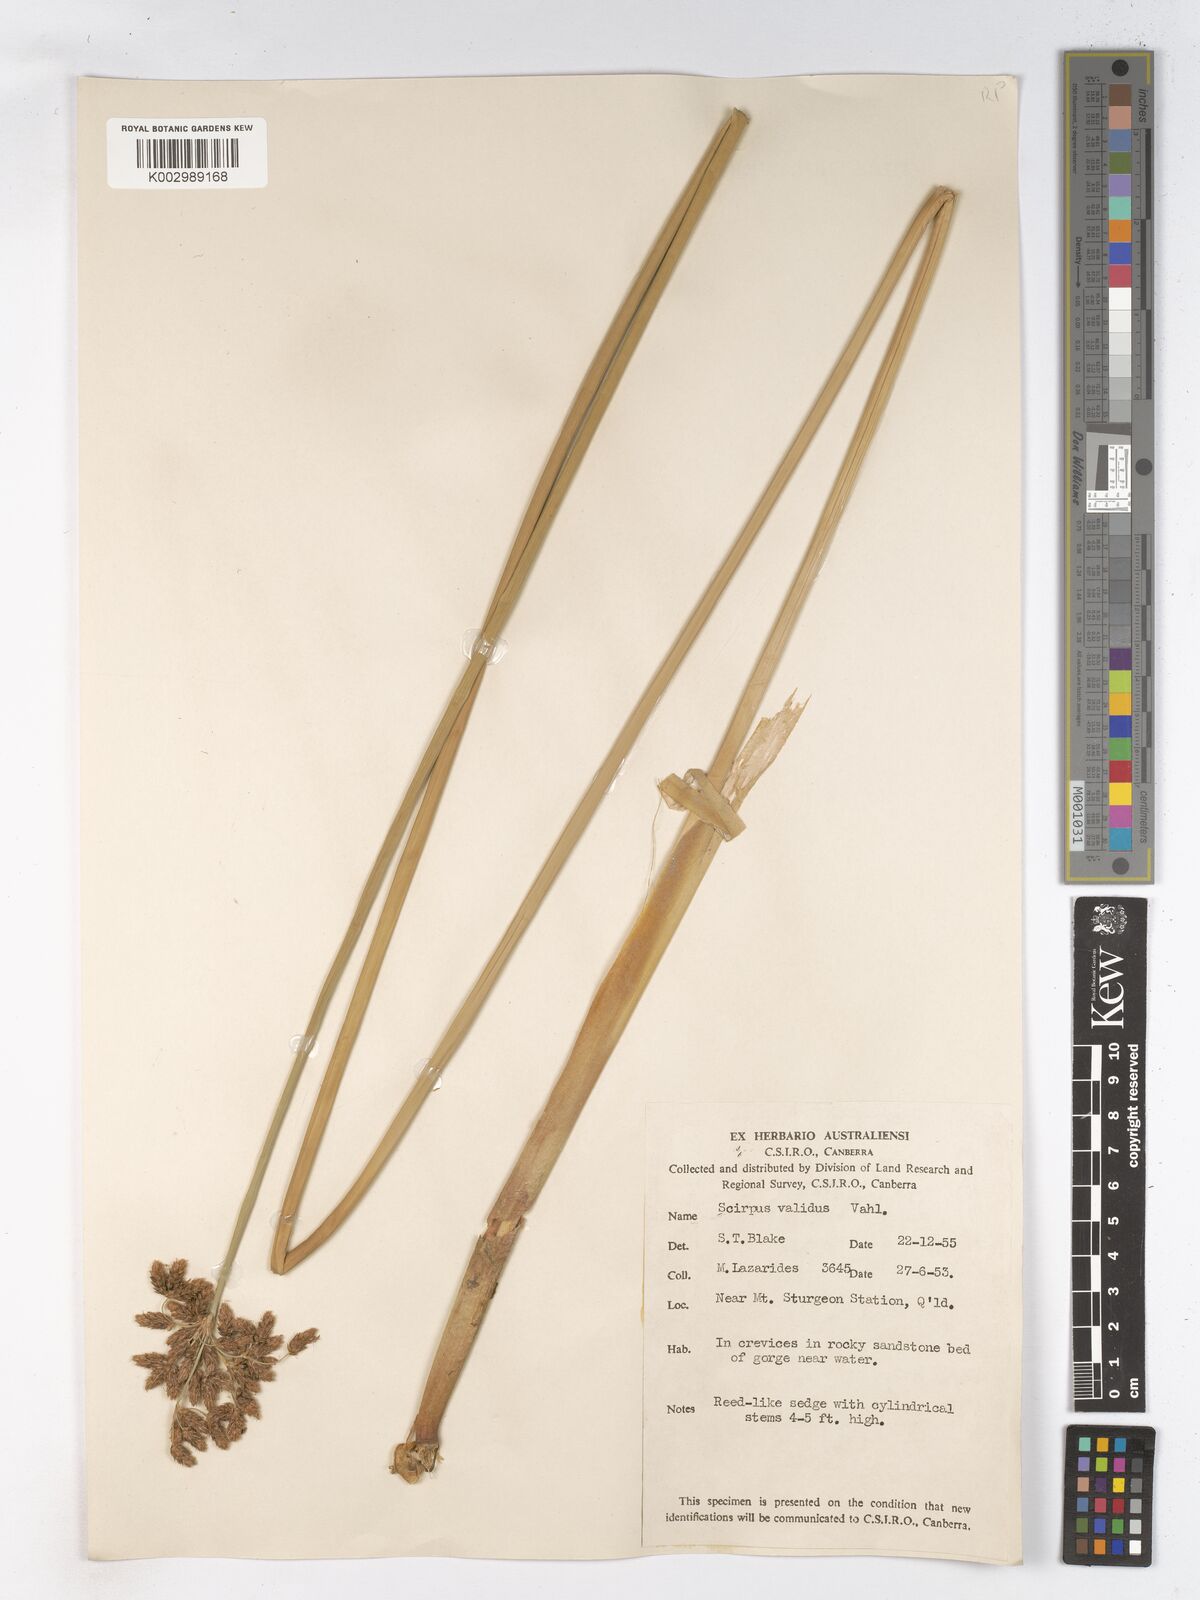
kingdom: Plantae
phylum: Tracheophyta
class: Liliopsida
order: Poales
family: Cyperaceae
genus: Schoenoplectus
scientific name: Schoenoplectus lacustris
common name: Common club-rush
